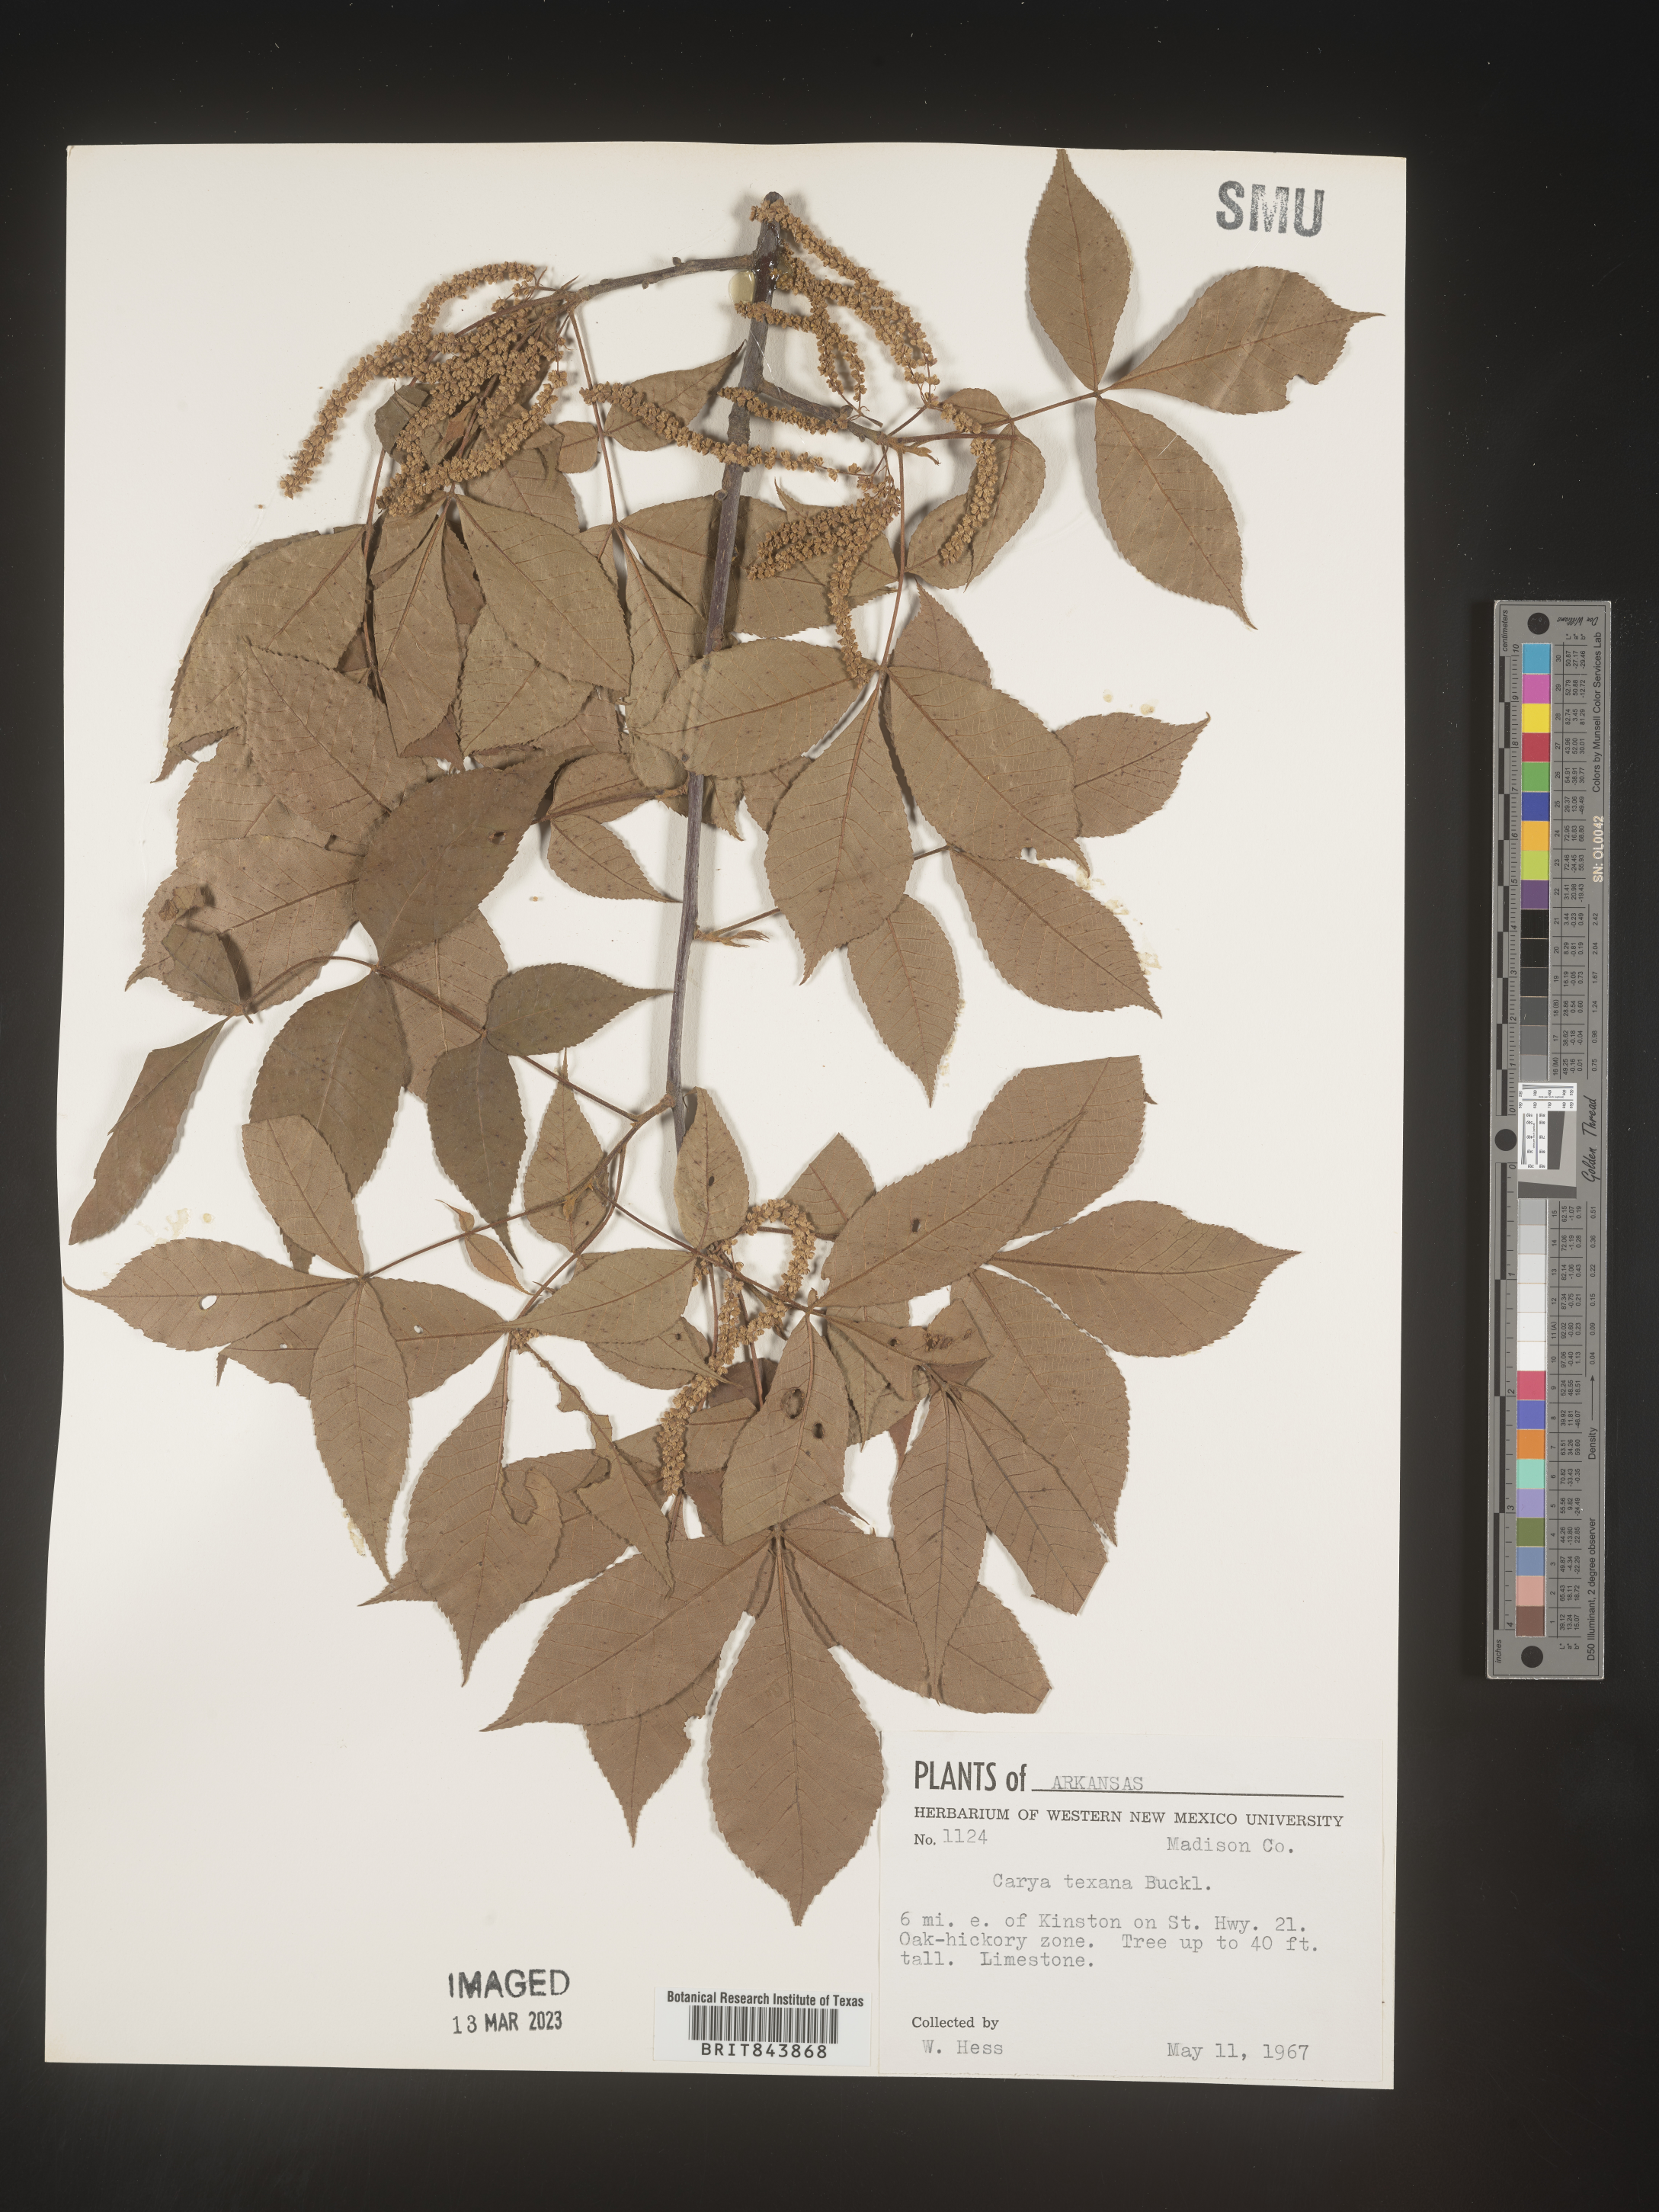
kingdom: Plantae
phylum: Tracheophyta
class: Magnoliopsida
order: Fagales
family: Juglandaceae
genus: Carya
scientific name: Carya texana
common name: Black hickory
